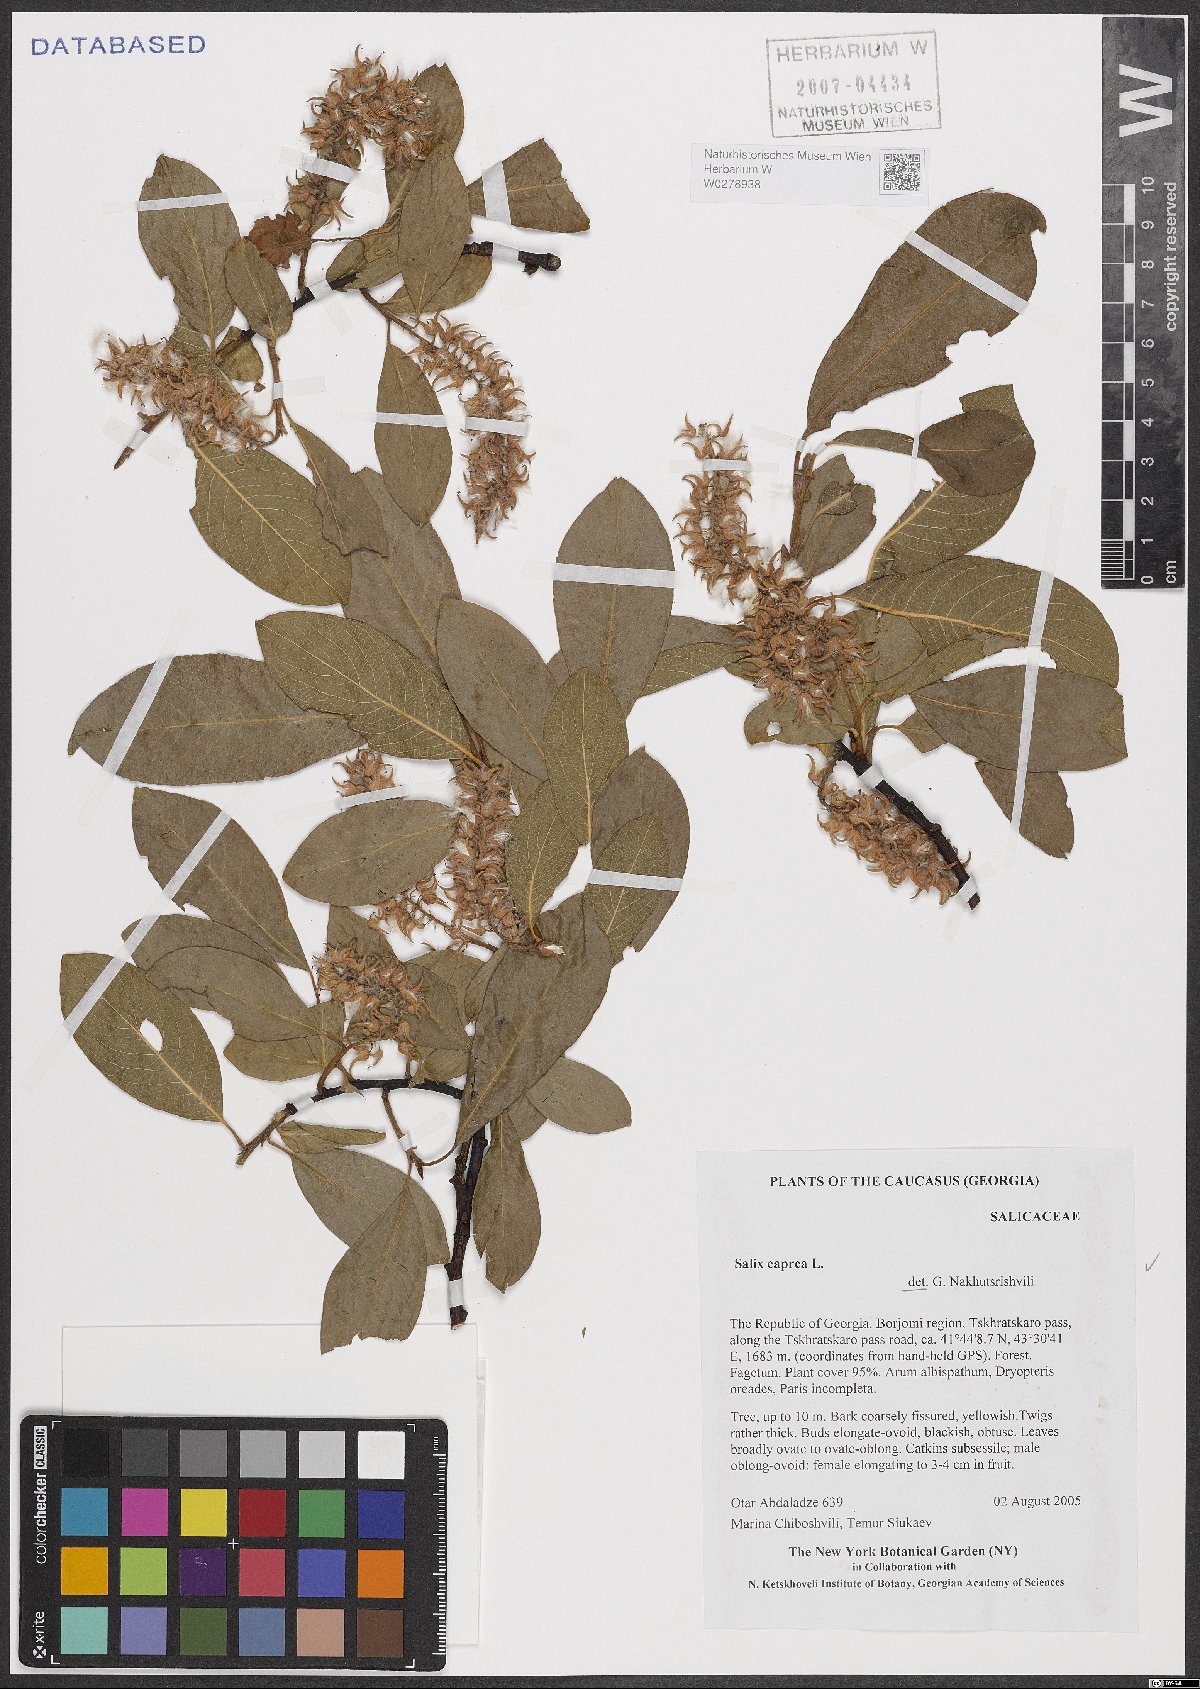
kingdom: Plantae
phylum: Tracheophyta
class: Magnoliopsida
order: Malpighiales
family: Salicaceae
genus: Salix
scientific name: Salix caprea
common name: Goat willow
